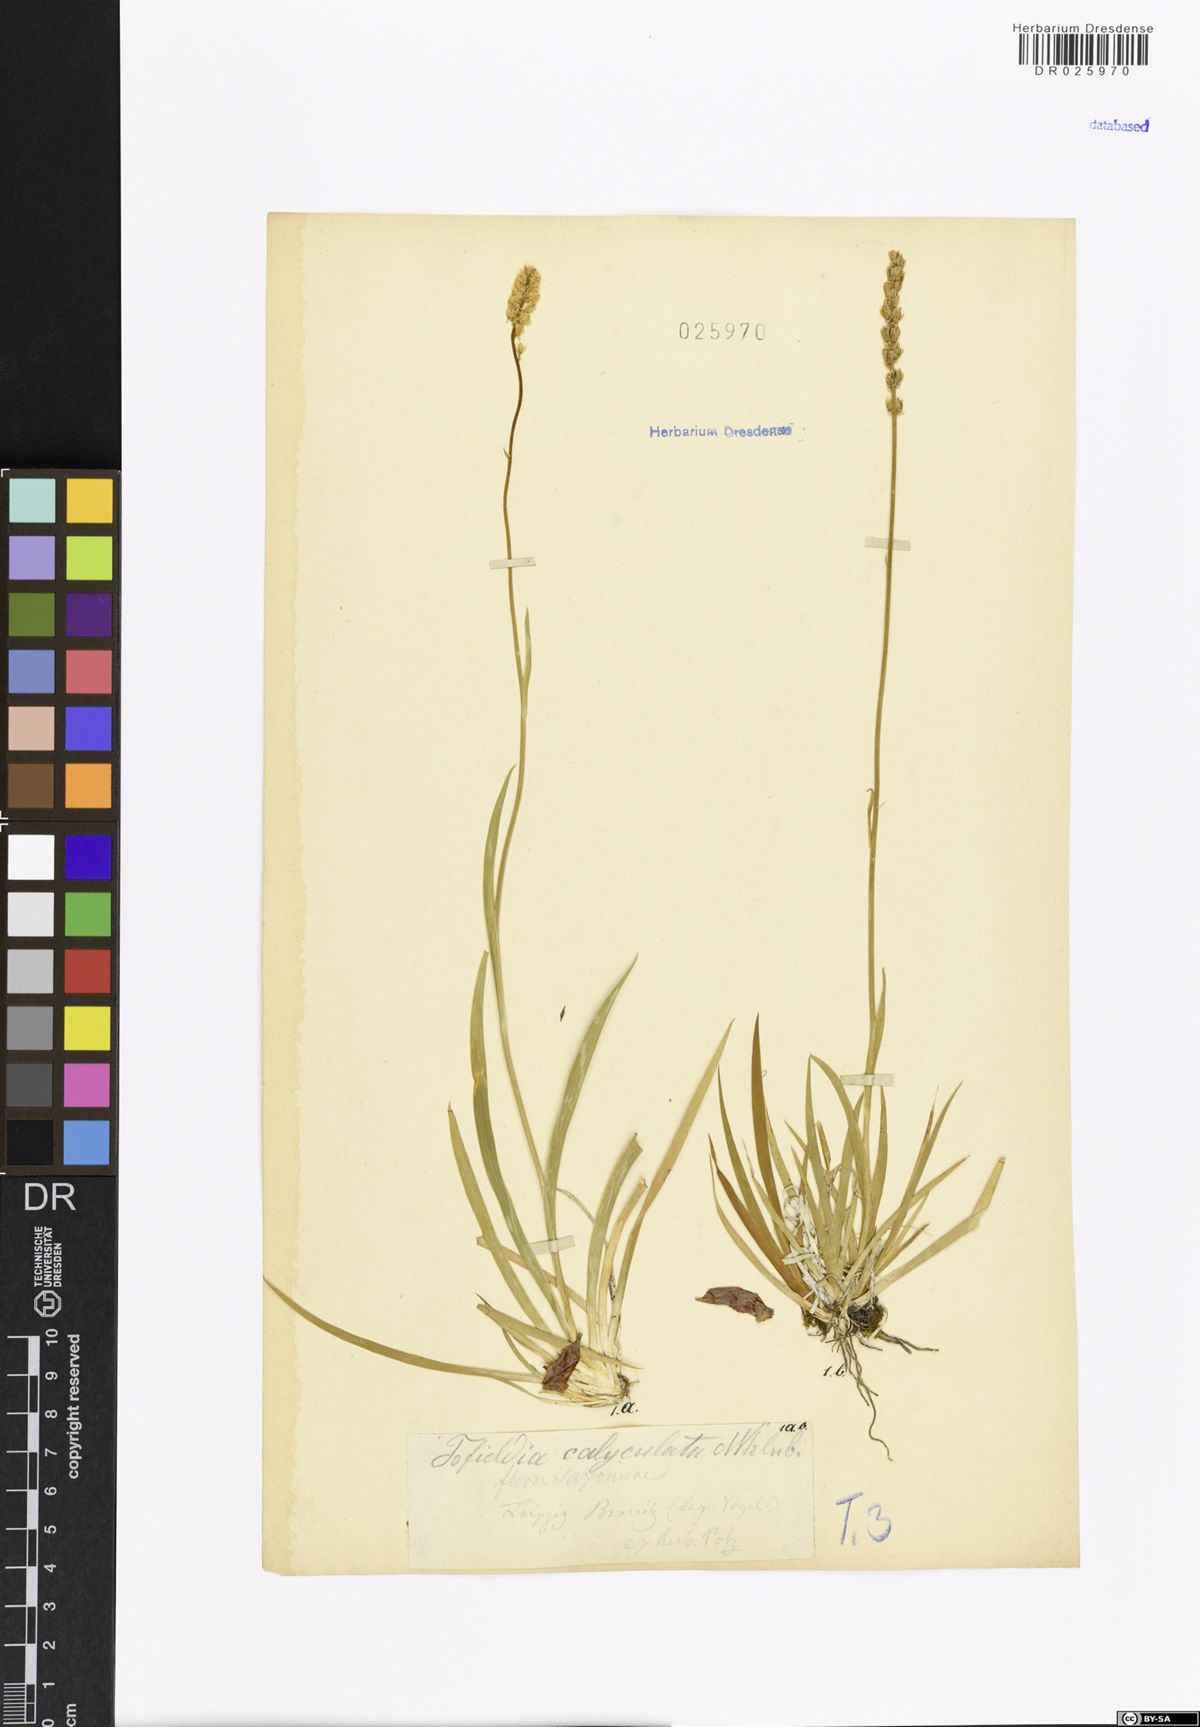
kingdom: Plantae
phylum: Tracheophyta
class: Liliopsida
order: Alismatales
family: Tofieldiaceae
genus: Tofieldia
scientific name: Tofieldia calyculata
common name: German-asphodel
